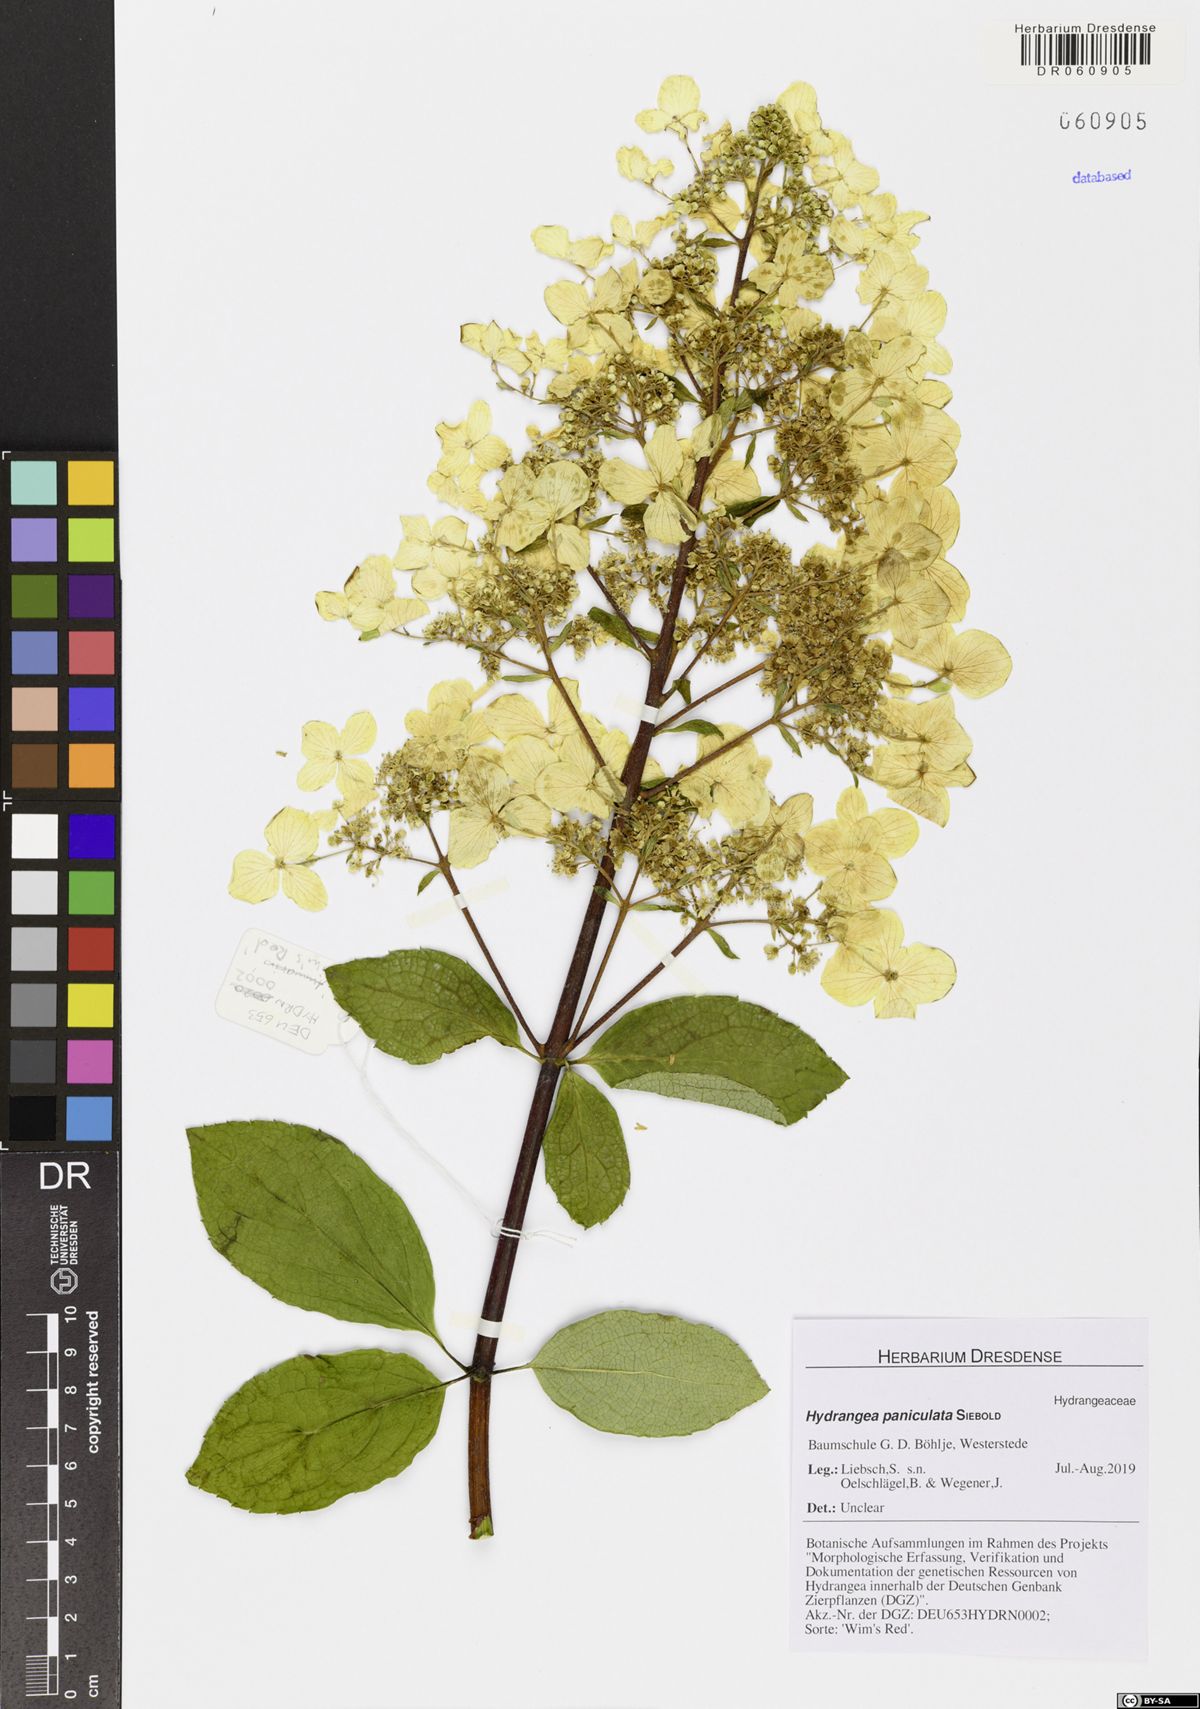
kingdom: Plantae
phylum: Tracheophyta
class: Magnoliopsida
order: Cornales
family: Hydrangeaceae
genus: Hydrangea
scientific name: Hydrangea paniculata
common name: Panicled hydrangea
